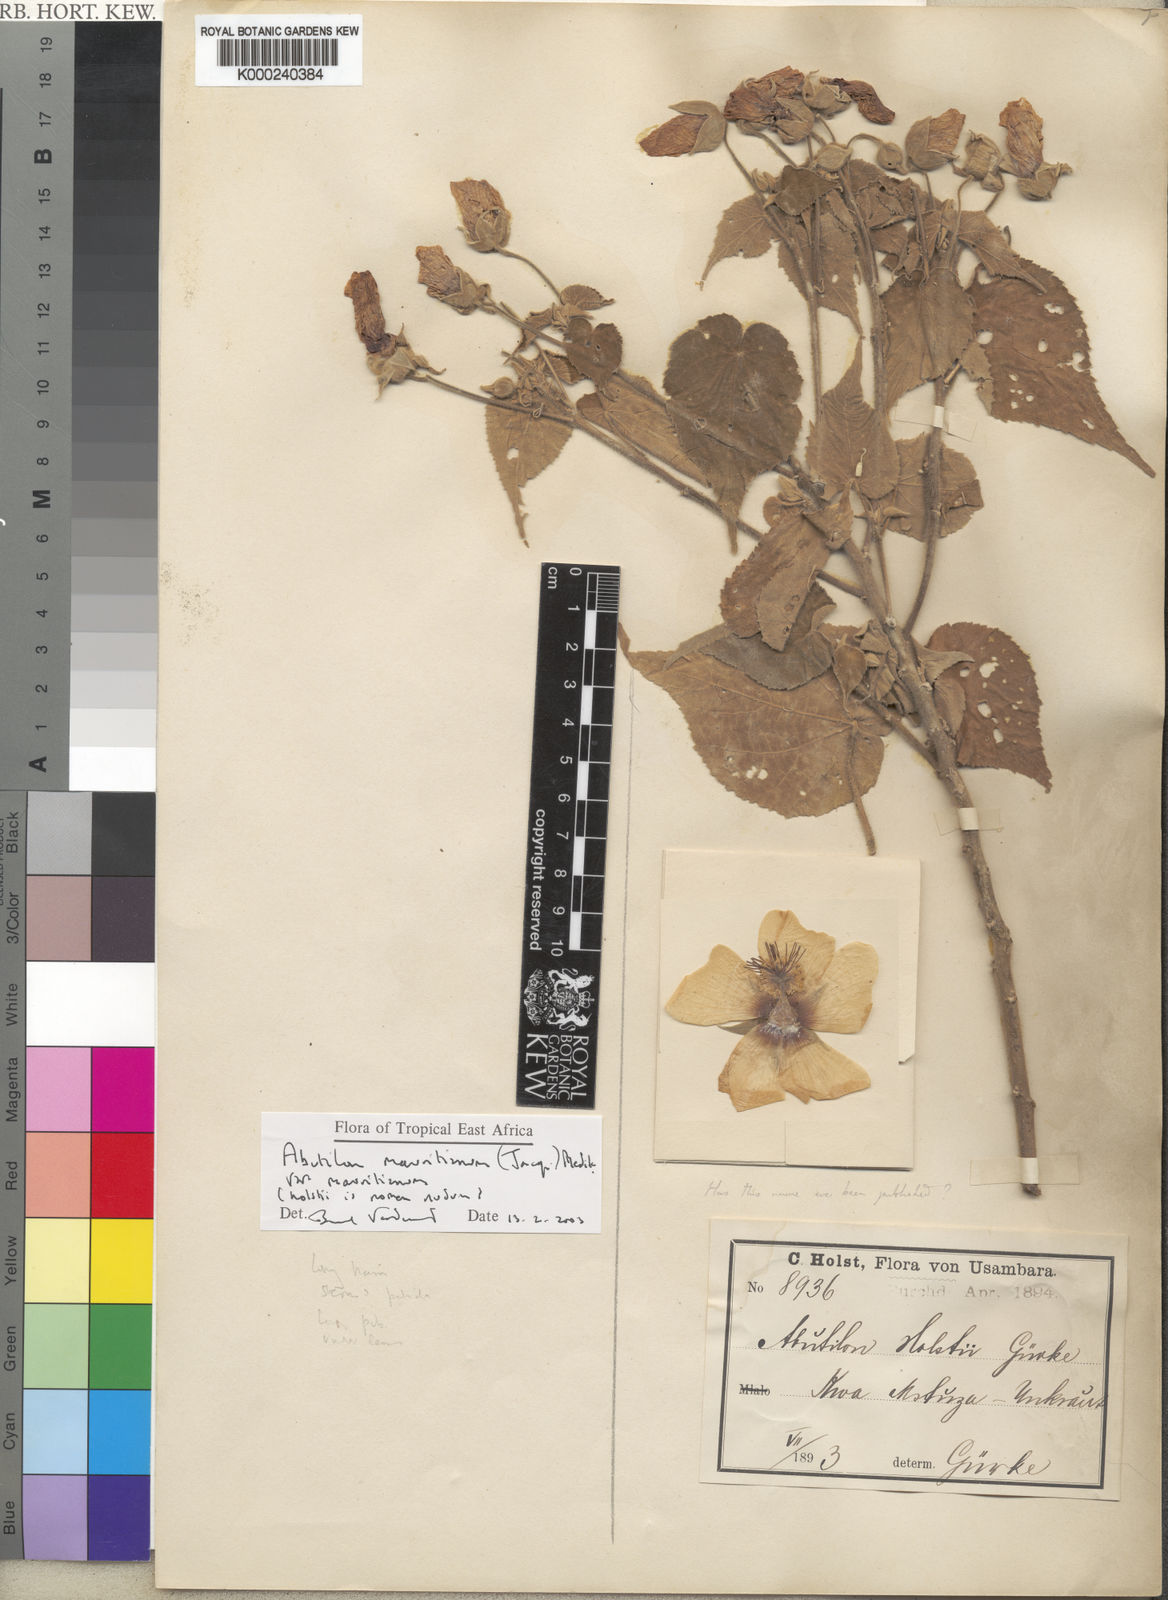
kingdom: Plantae
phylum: Tracheophyta
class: Magnoliopsida
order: Malvales
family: Malvaceae
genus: Abutilon
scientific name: Abutilon mauritianum
